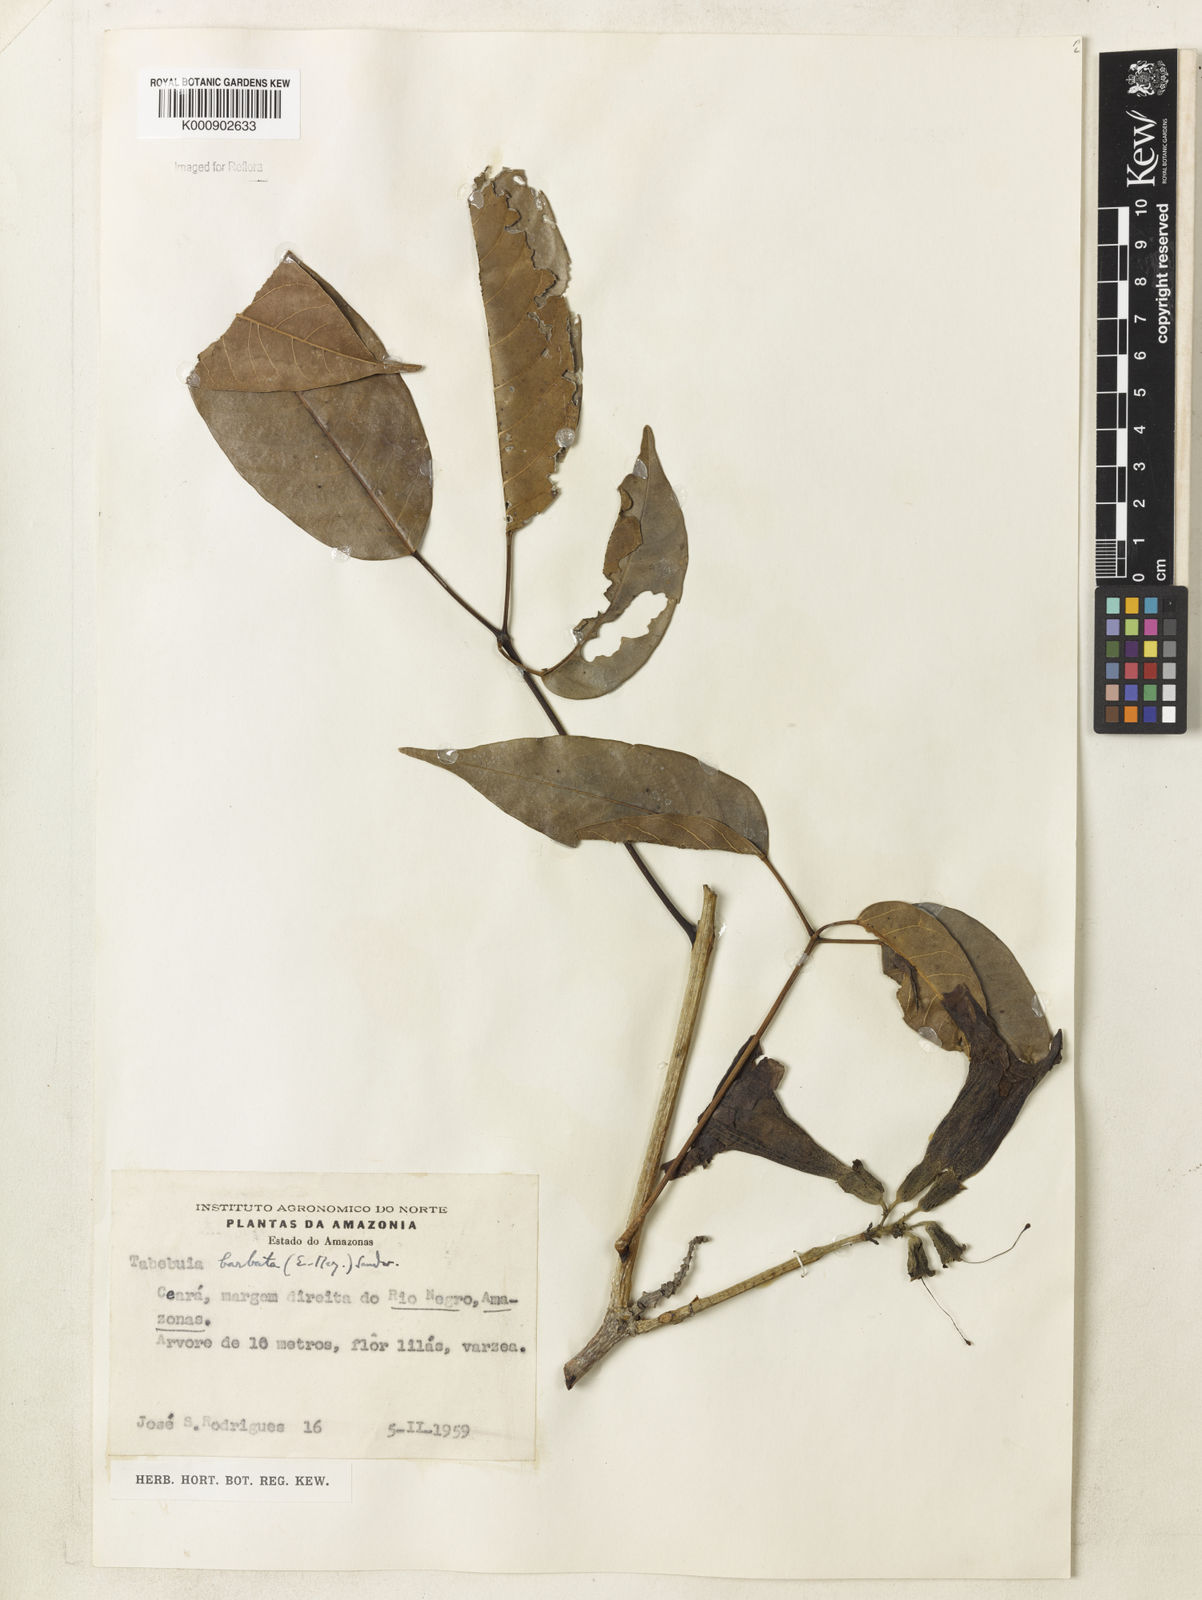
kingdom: Plantae
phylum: Tracheophyta
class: Magnoliopsida
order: Lamiales
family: Bignoniaceae
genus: Handroanthus
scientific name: Handroanthus barbatus
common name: Trumpet trees
